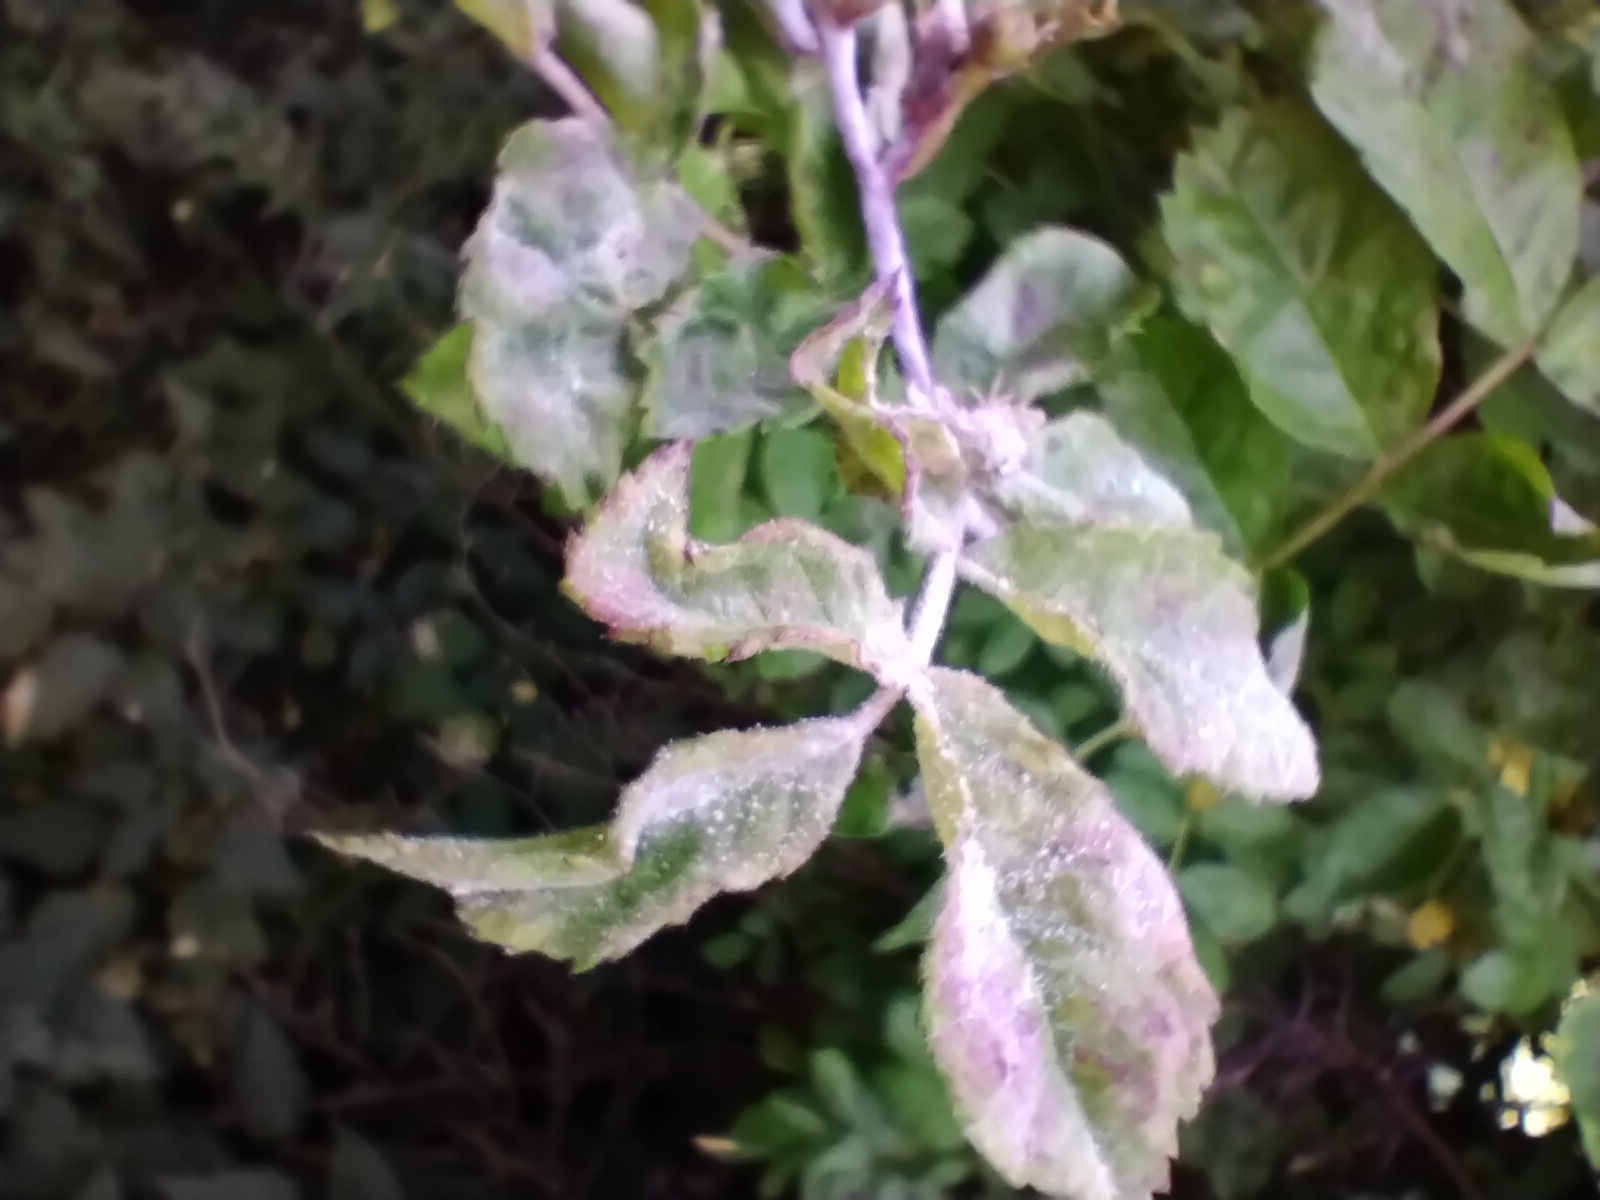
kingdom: Fungi
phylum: Ascomycota
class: Leotiomycetes
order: Helotiales
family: Erysiphaceae
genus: Podosphaera
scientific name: Podosphaera pannosa
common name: Rose mildew
